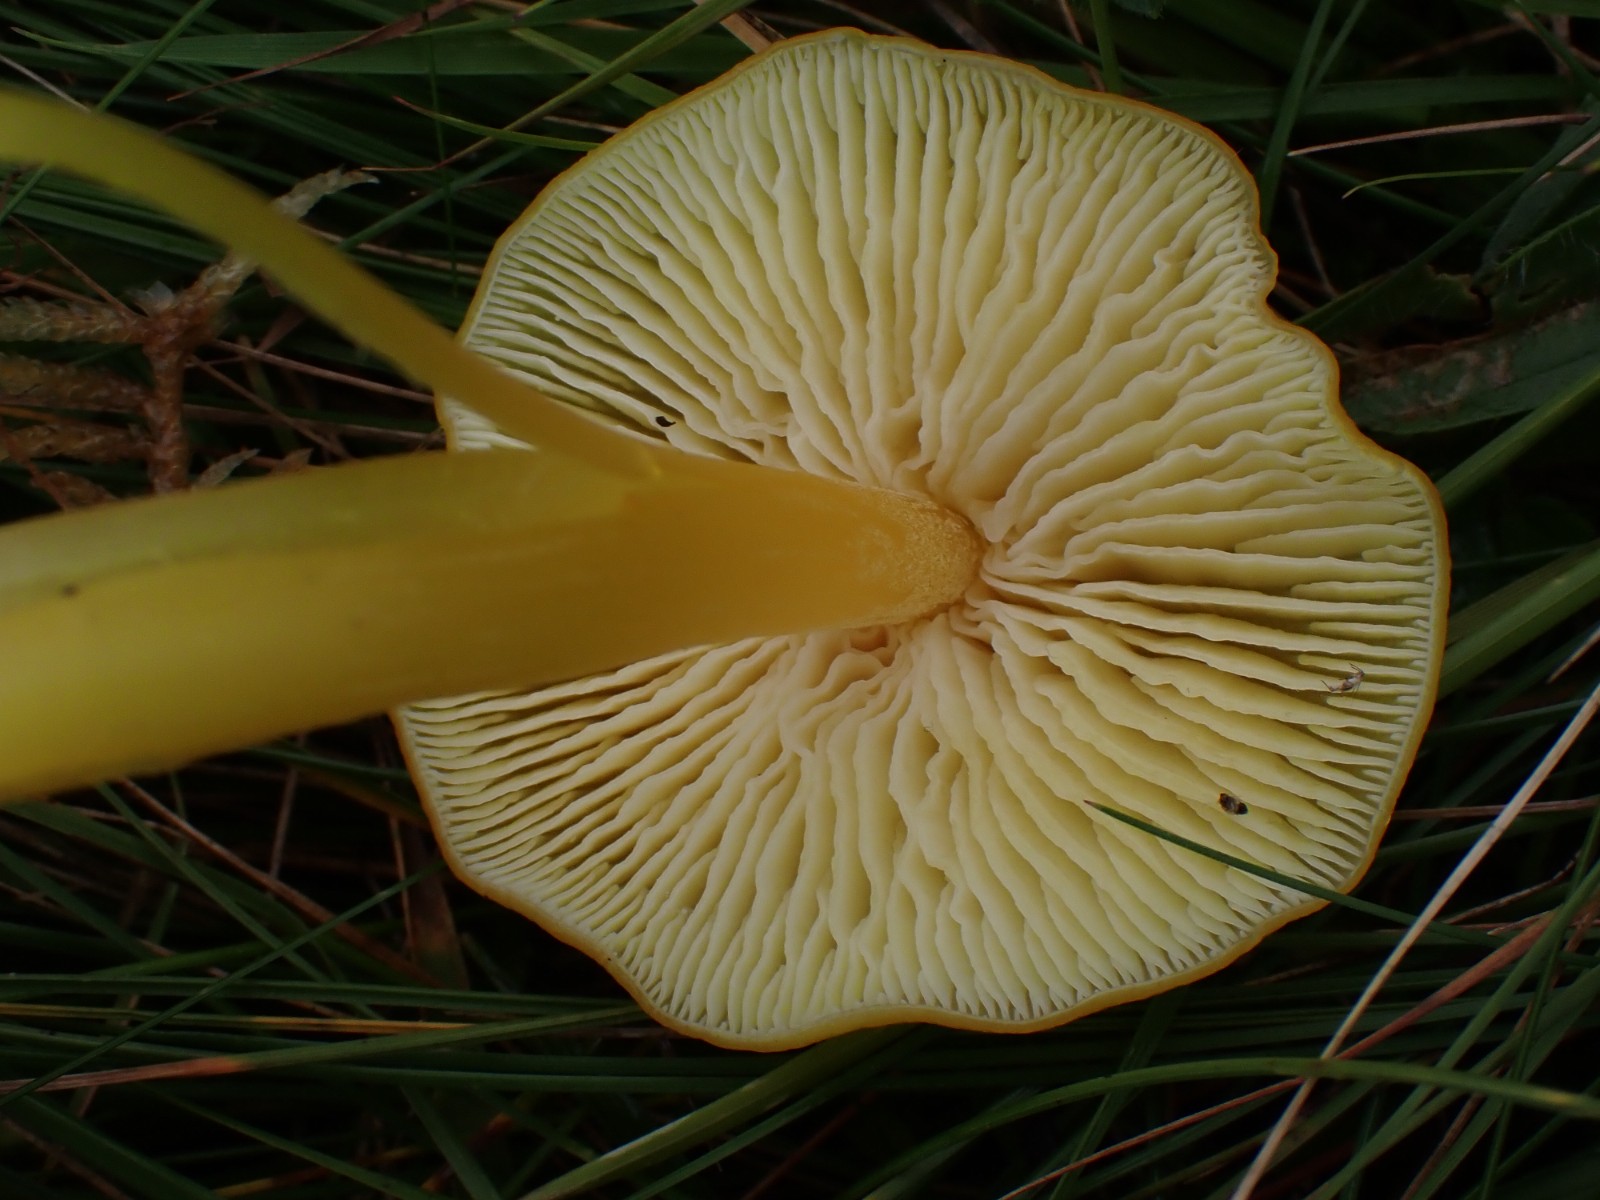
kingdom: Fungi
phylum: Basidiomycota
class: Agaricomycetes
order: Agaricales
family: Hygrophoraceae
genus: Hygrocybe
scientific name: Hygrocybe chlorophana
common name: gul vokshat
